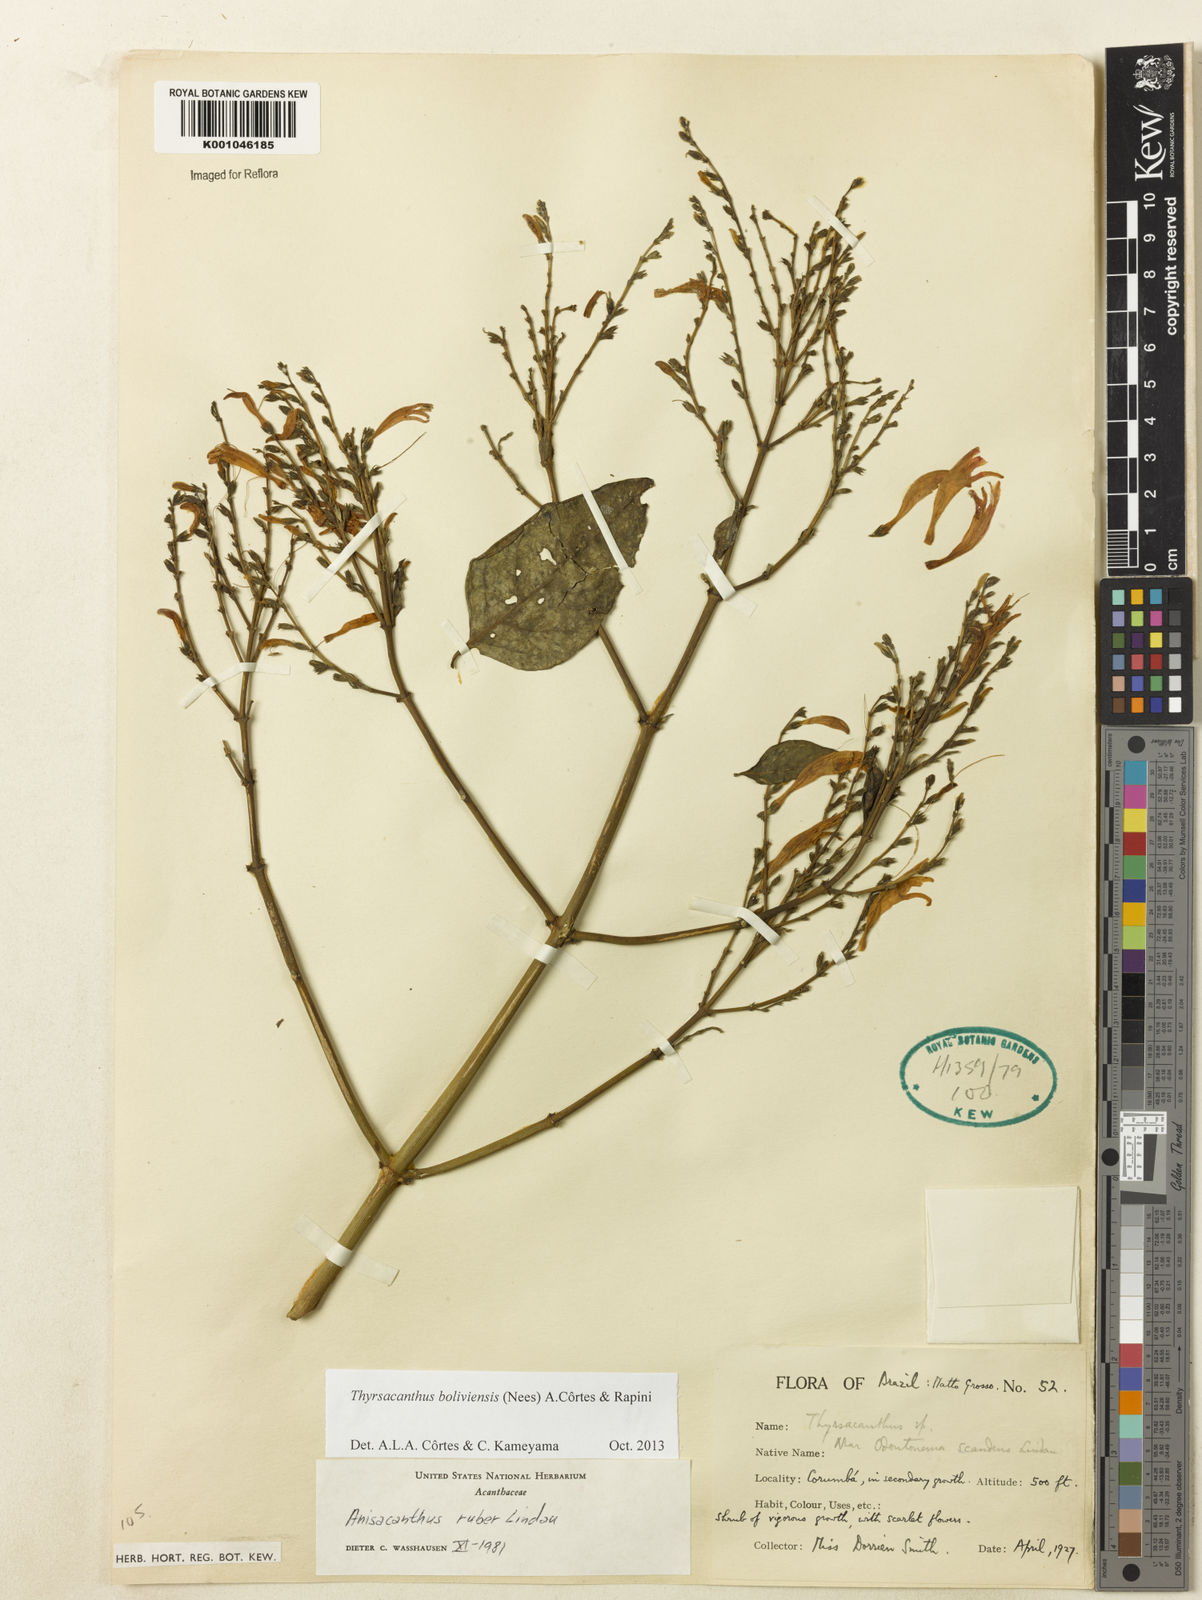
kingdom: Plantae
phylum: Tracheophyta
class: Magnoliopsida
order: Lamiales
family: Acanthaceae
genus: Thyrsacanthus
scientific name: Thyrsacanthus boliviensis
